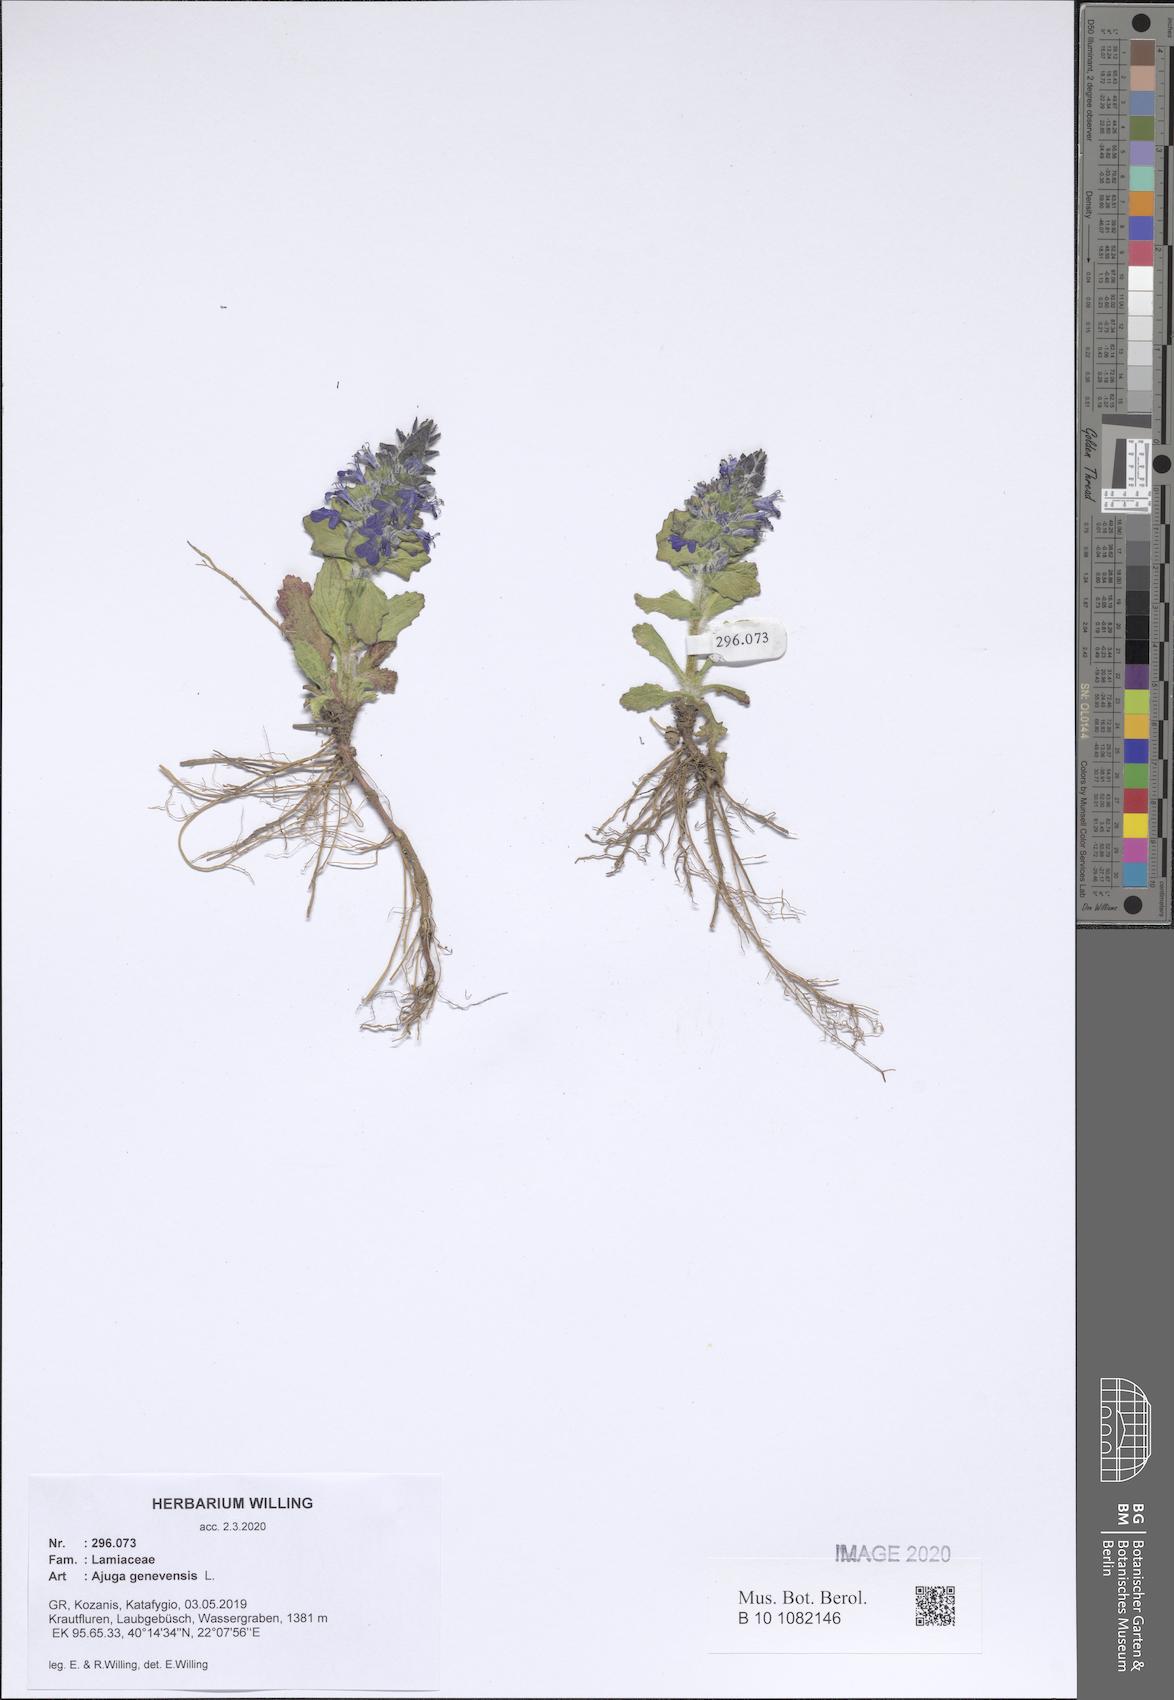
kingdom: Plantae
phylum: Tracheophyta
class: Magnoliopsida
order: Lamiales
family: Lamiaceae
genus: Ajuga
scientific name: Ajuga genevensis
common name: Blue bugle
